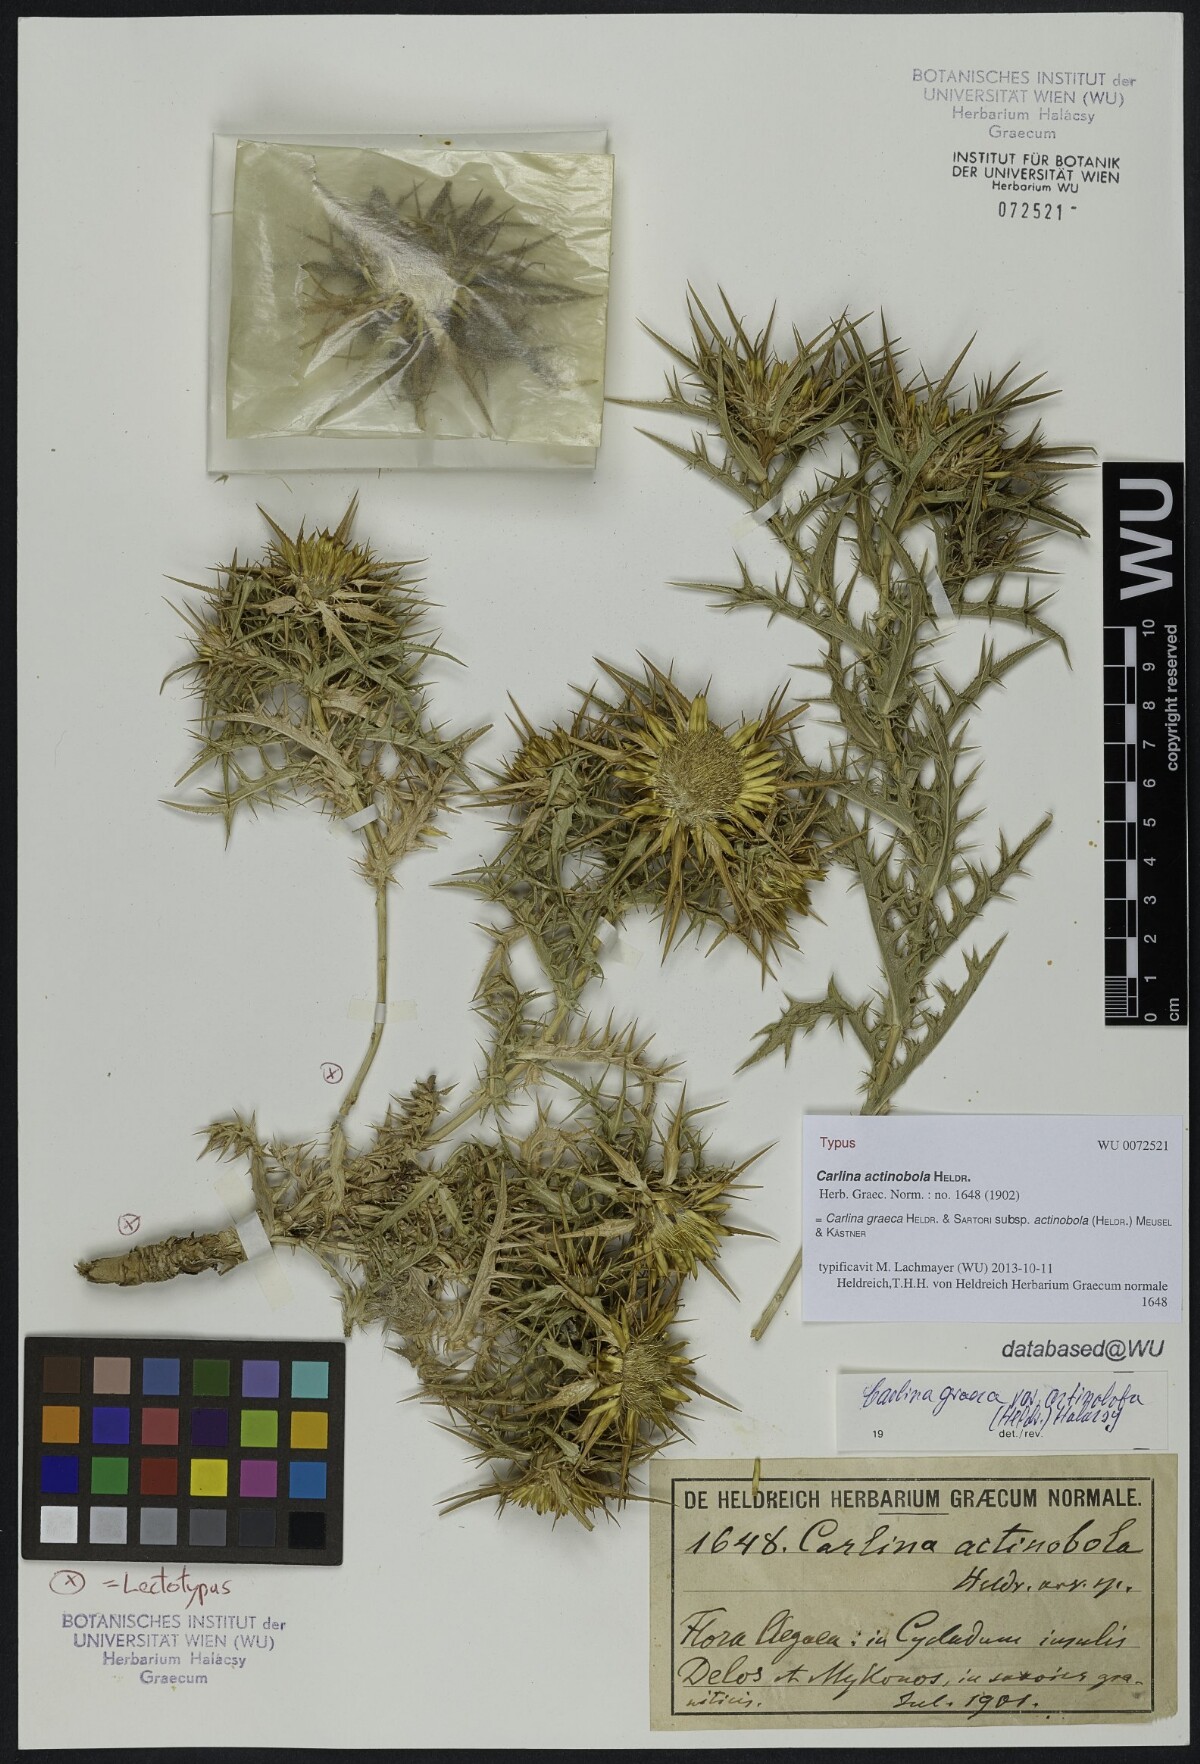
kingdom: Plantae
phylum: Tracheophyta
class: Magnoliopsida
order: Asterales
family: Asteraceae
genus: Carlina
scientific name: Carlina graeca
